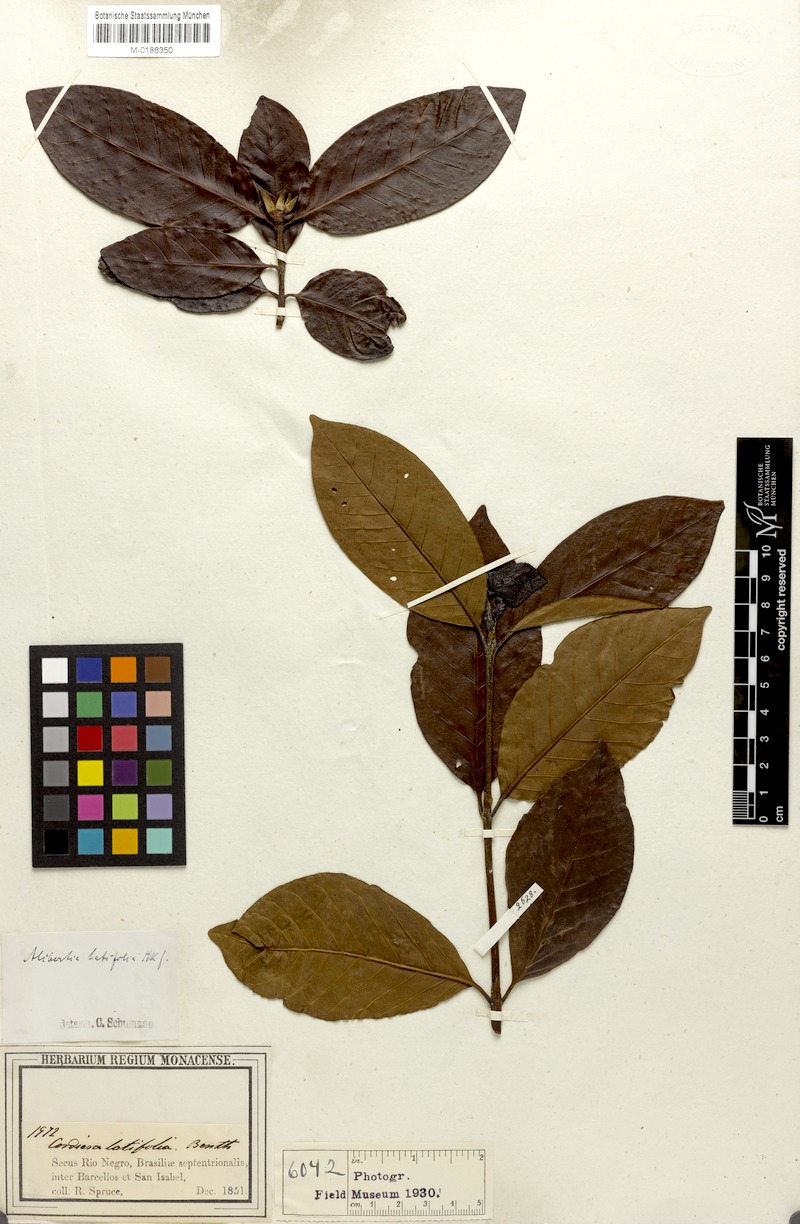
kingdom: Plantae
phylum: Tracheophyta
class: Magnoliopsida
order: Gentianales
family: Rubiaceae
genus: Alibertia
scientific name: Alibertia latifolia
